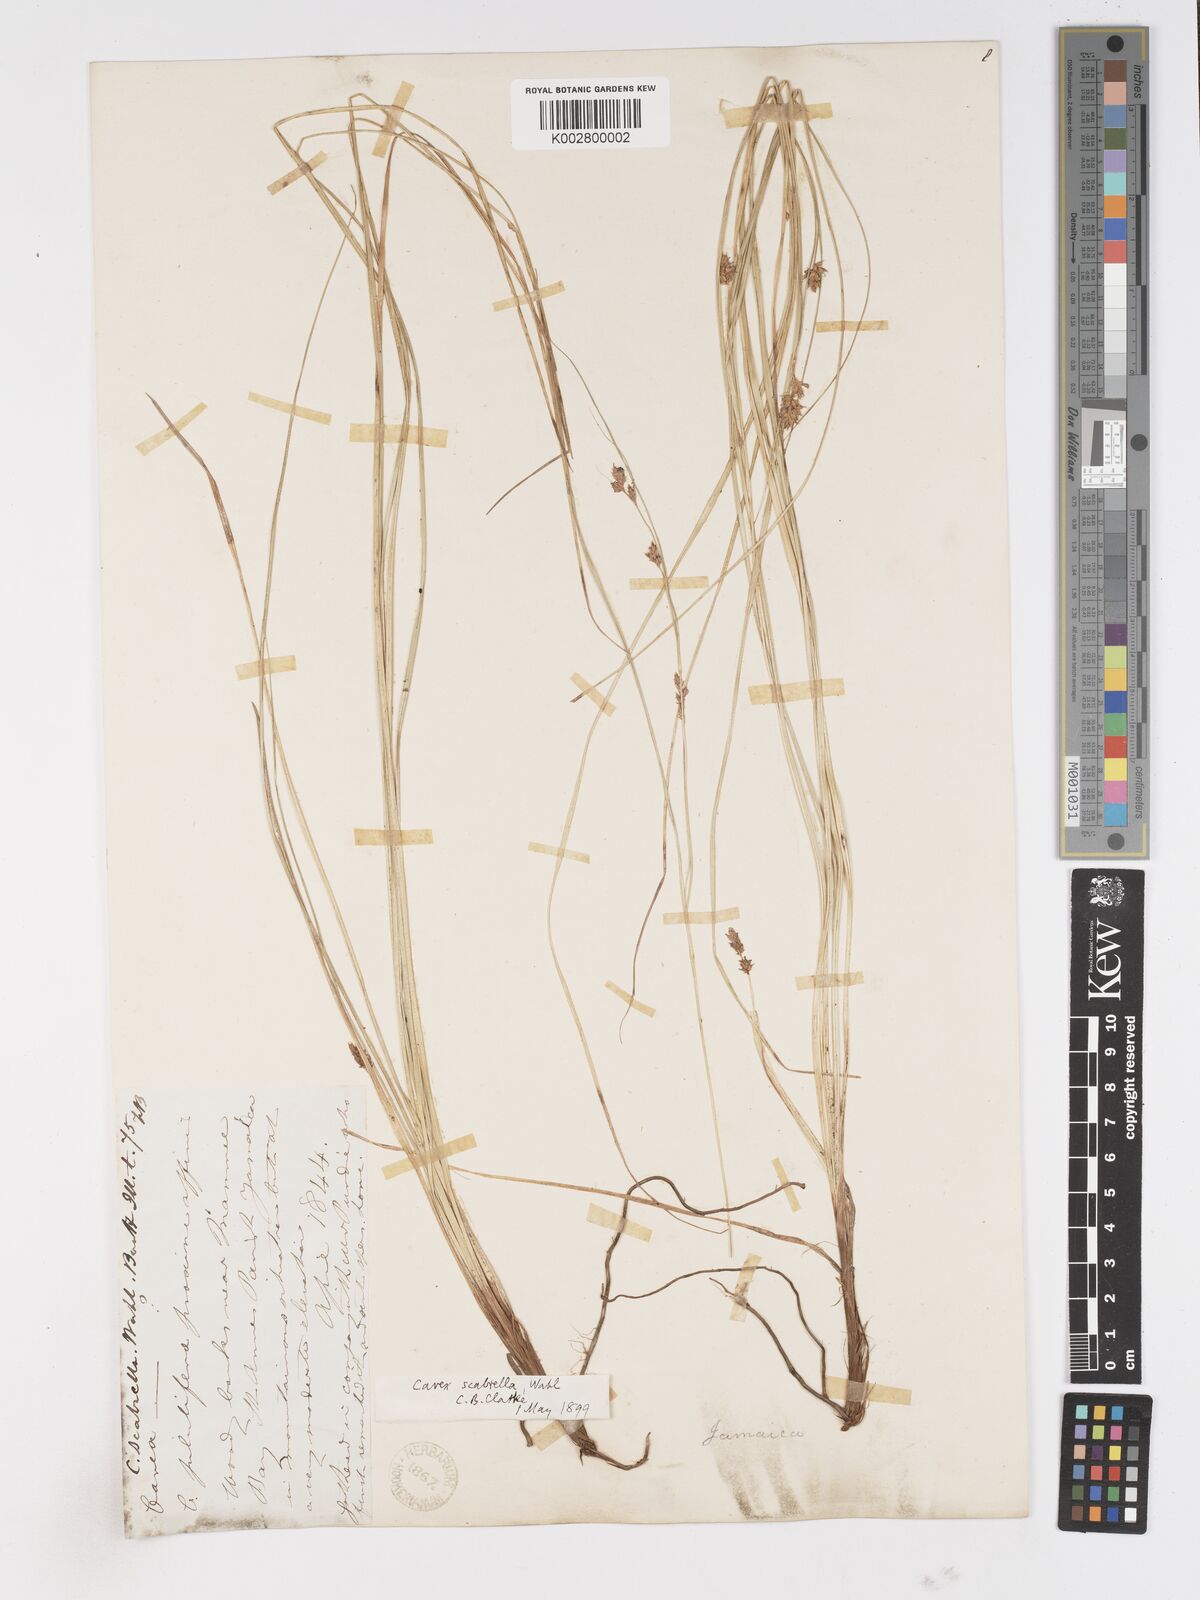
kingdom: Plantae
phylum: Tracheophyta
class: Liliopsida
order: Poales
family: Cyperaceae
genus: Carex
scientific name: Carex
